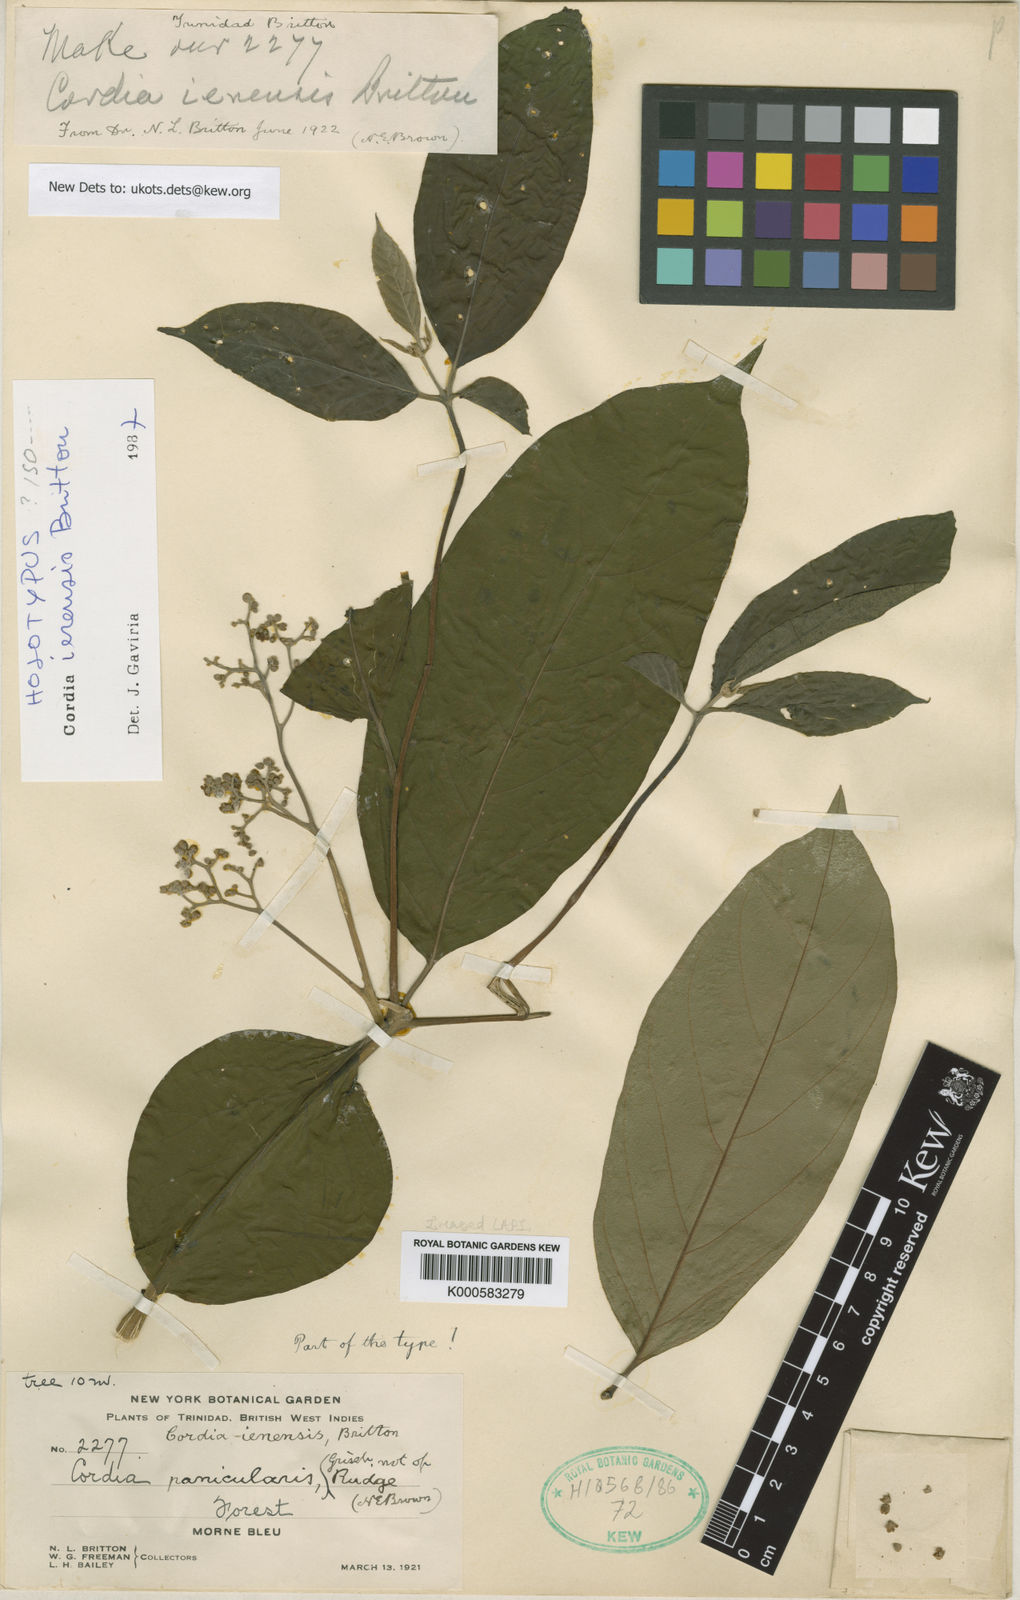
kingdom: Plantae
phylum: Tracheophyta
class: Magnoliopsida
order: Boraginales
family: Cordiaceae
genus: Cordia
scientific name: Cordia sericicalyx
